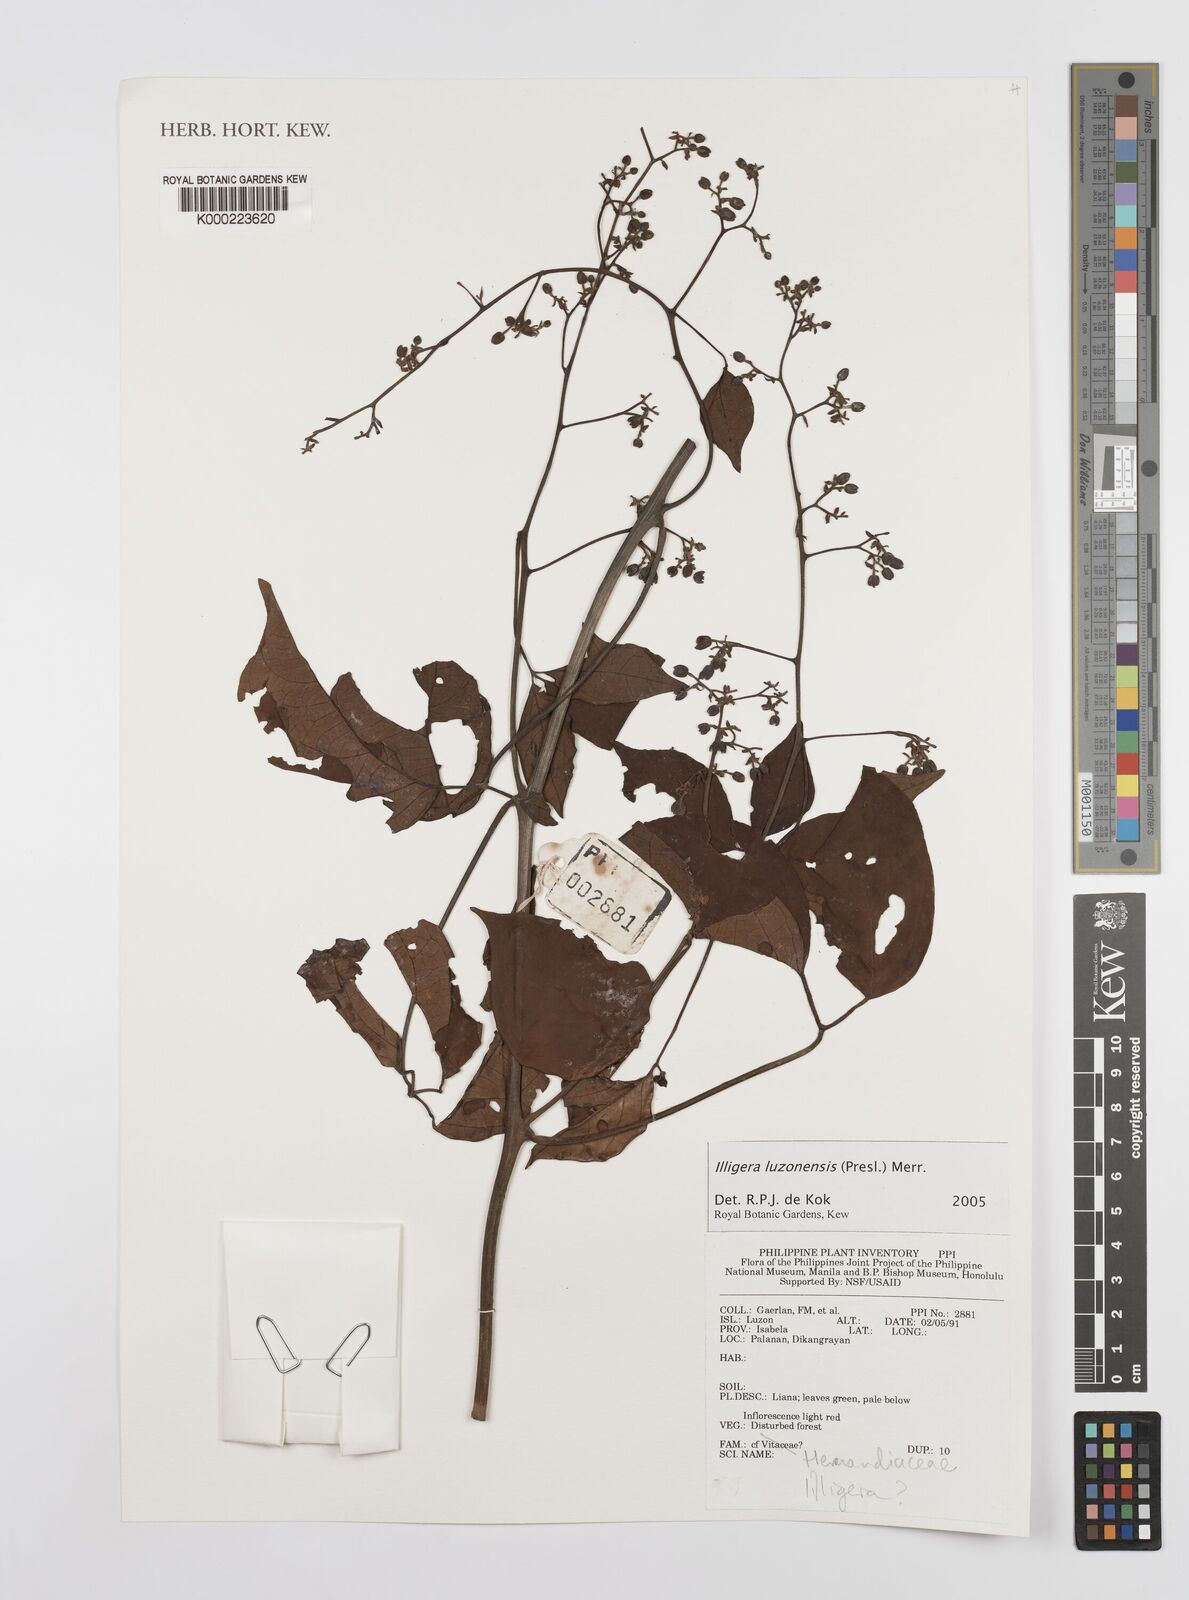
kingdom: Plantae
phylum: Tracheophyta
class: Magnoliopsida
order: Laurales
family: Hernandiaceae
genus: Illigera
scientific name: Illigera luzonensis
